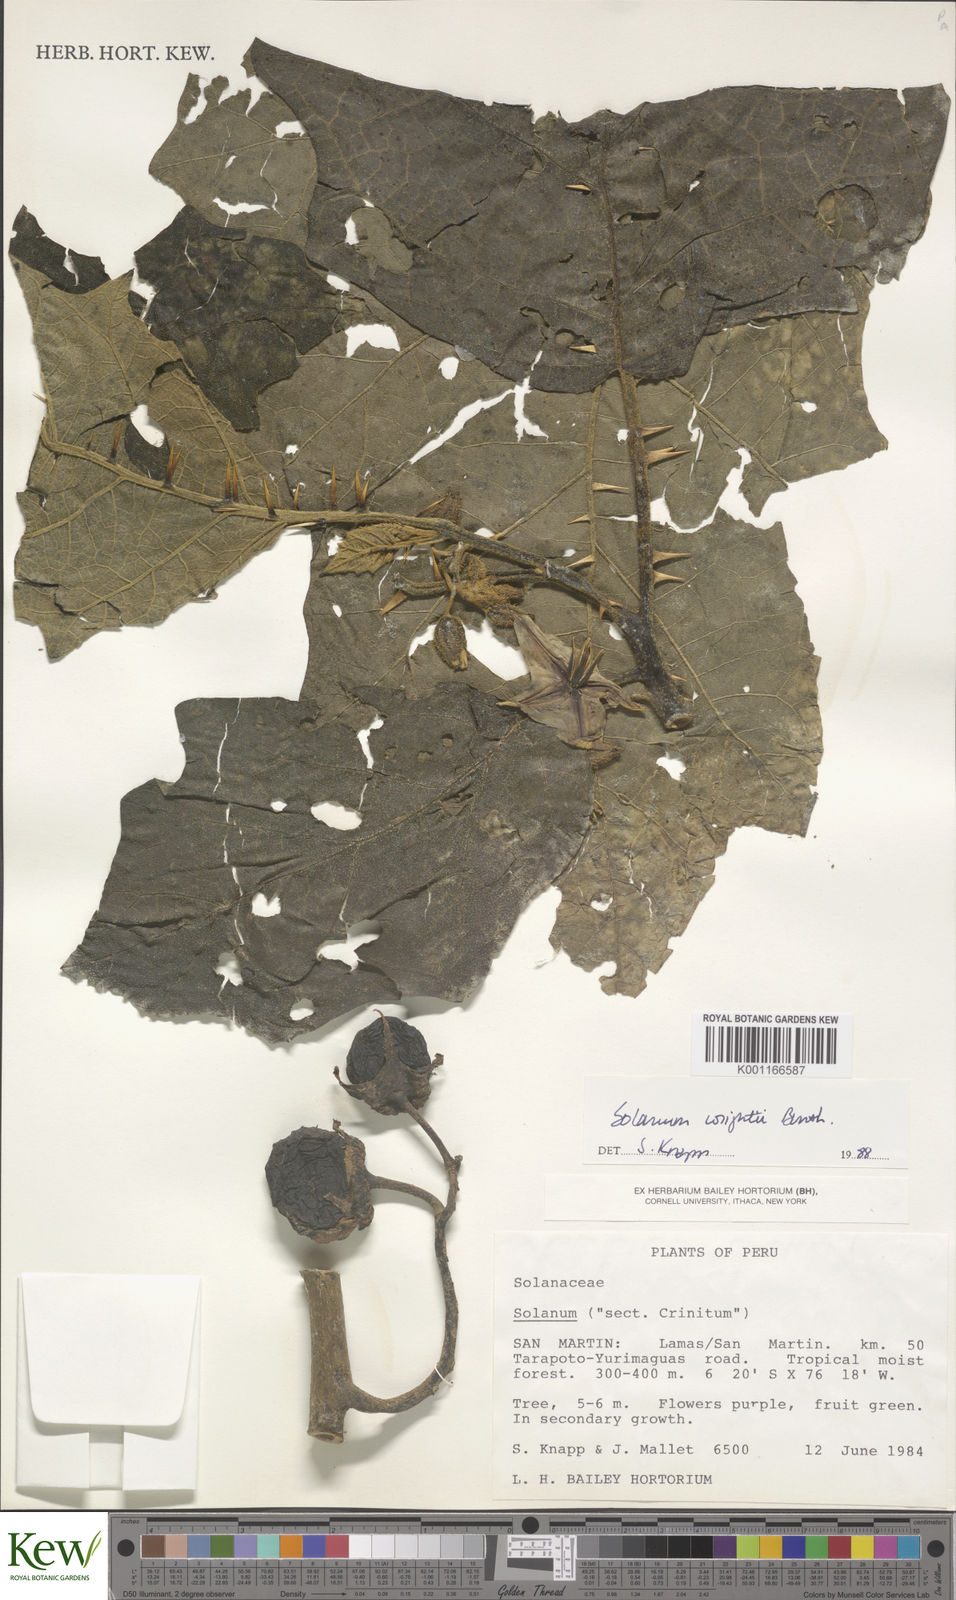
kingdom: Plantae
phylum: Tracheophyta
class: Magnoliopsida
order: Solanales
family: Solanaceae
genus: Solanum
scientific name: Solanum wrightii
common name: Brazilian potato-tree
